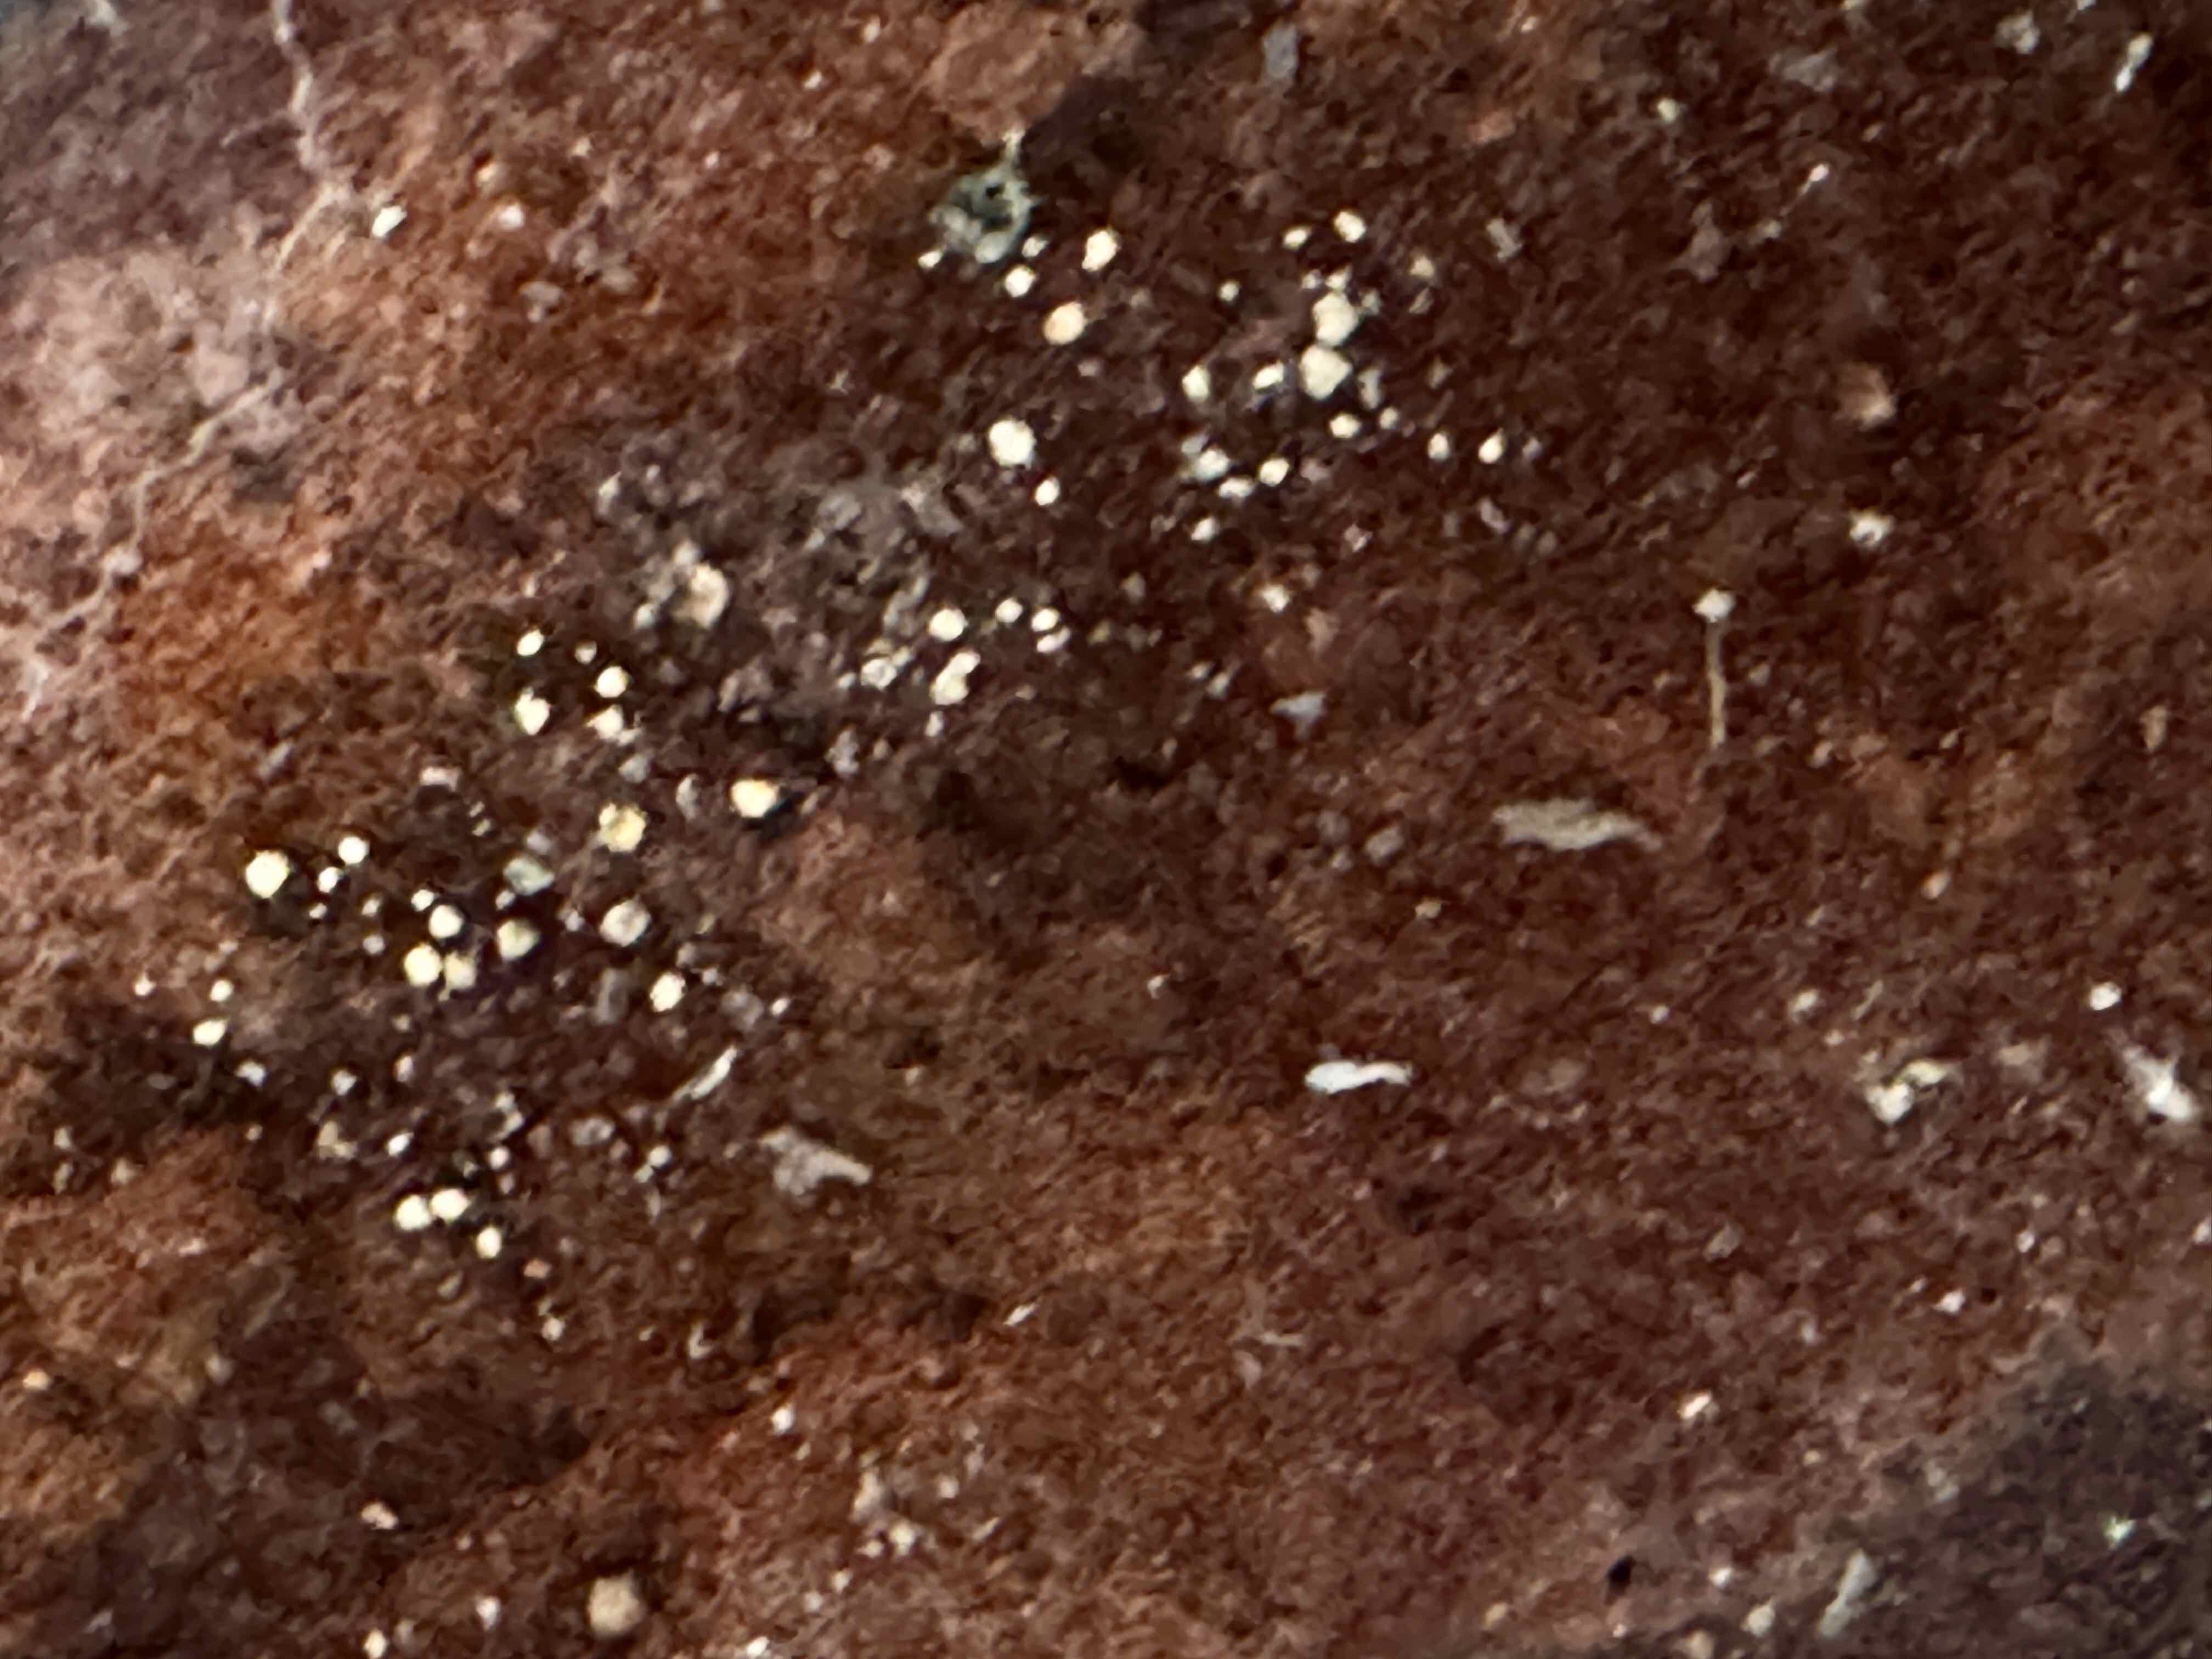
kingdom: Fungi
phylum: Basidiomycota
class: Agaricomycetes
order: Hymenochaetales
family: Hymenochaetaceae
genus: Fuscoporia
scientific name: Fuscoporia ferrea
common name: skorpe-ildporesvamp
